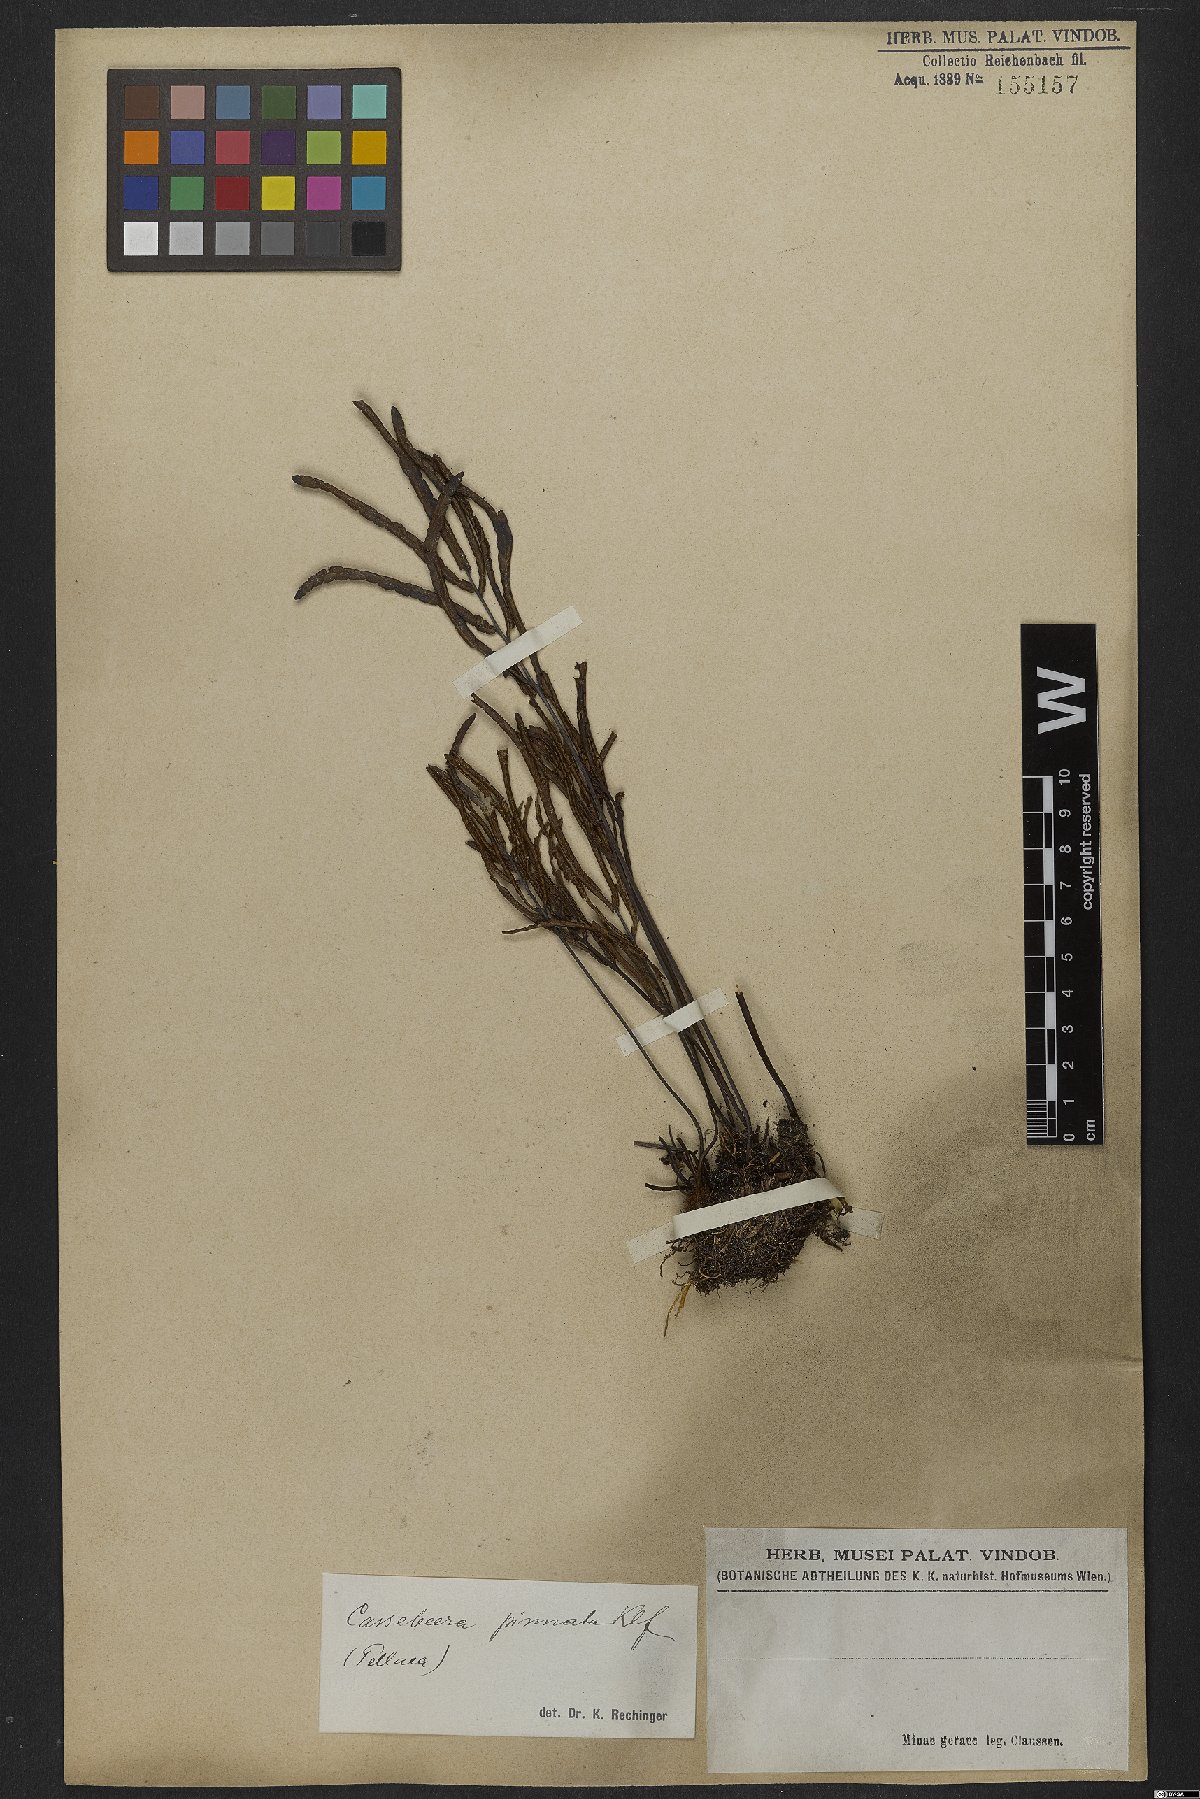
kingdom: Plantae
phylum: Tracheophyta
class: Polypodiopsida
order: Polypodiales
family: Pteridaceae
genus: Ormopteris
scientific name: Ormopteris pinnata
